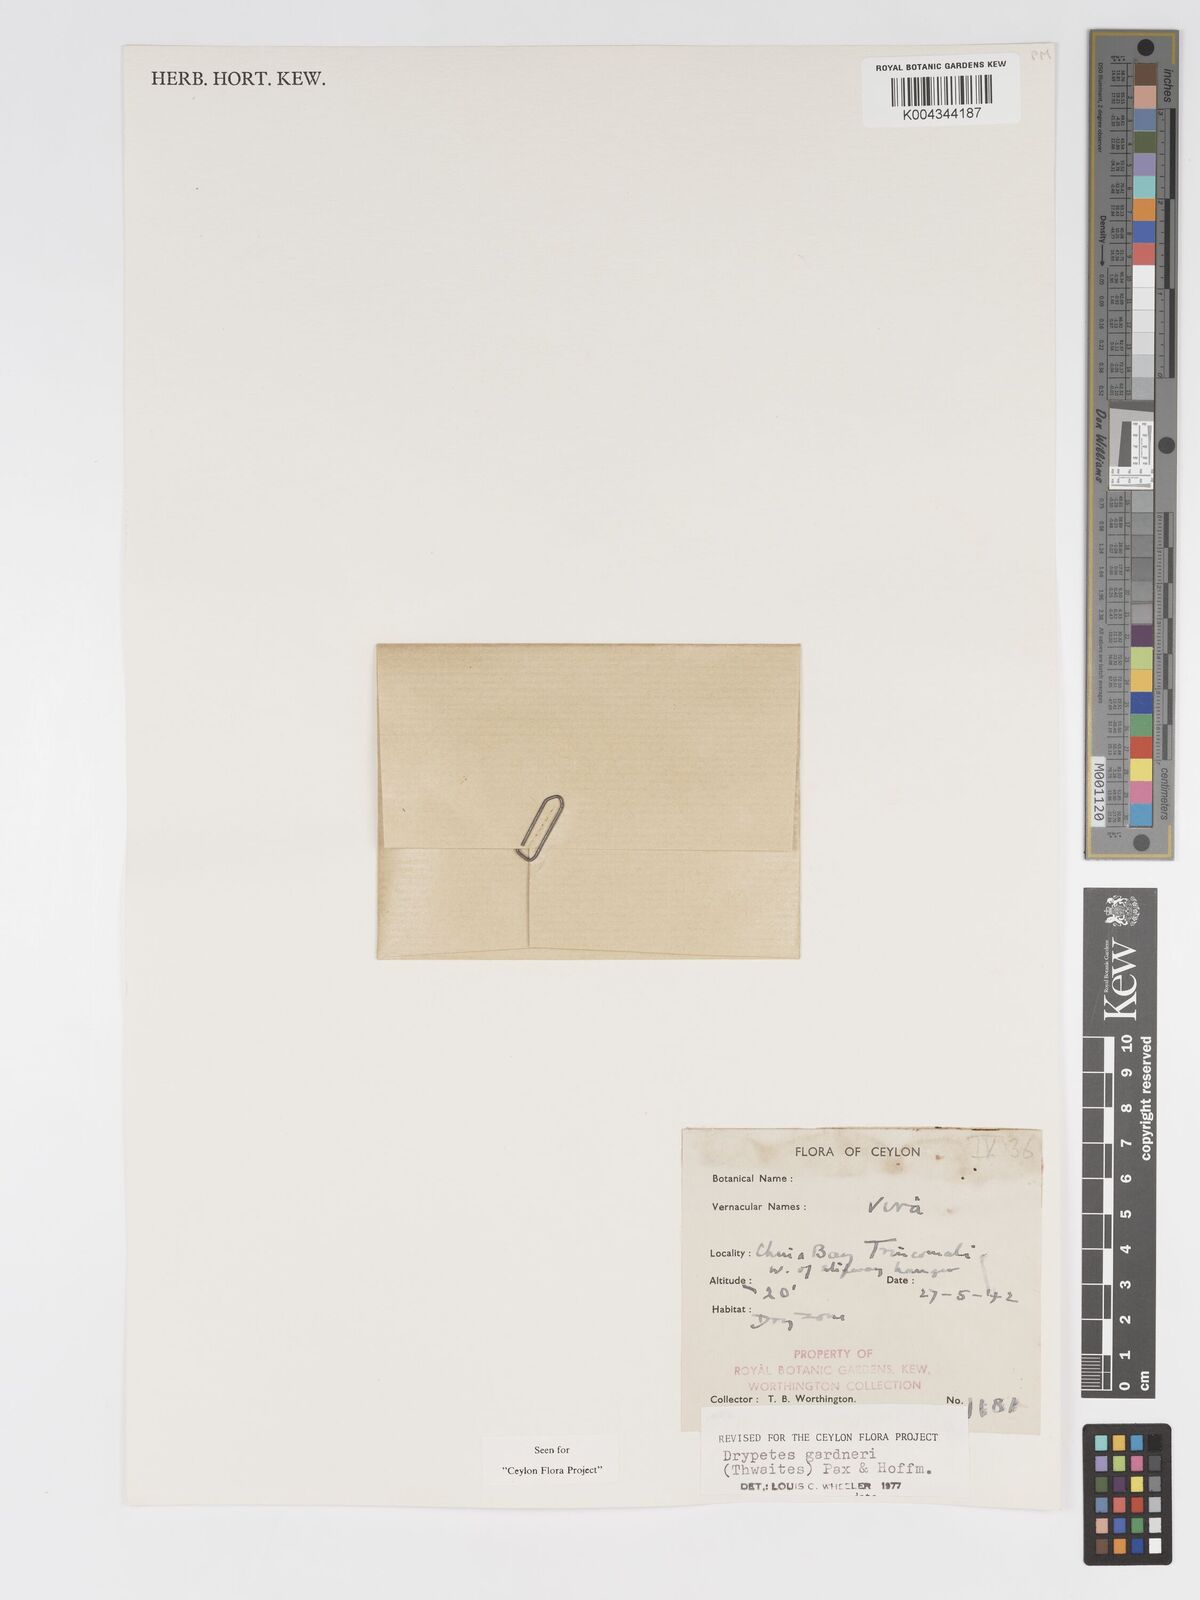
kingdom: Plantae
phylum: Tracheophyta
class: Magnoliopsida
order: Malpighiales
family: Putranjivaceae
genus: Drypetes
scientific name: Drypetes gardneri
